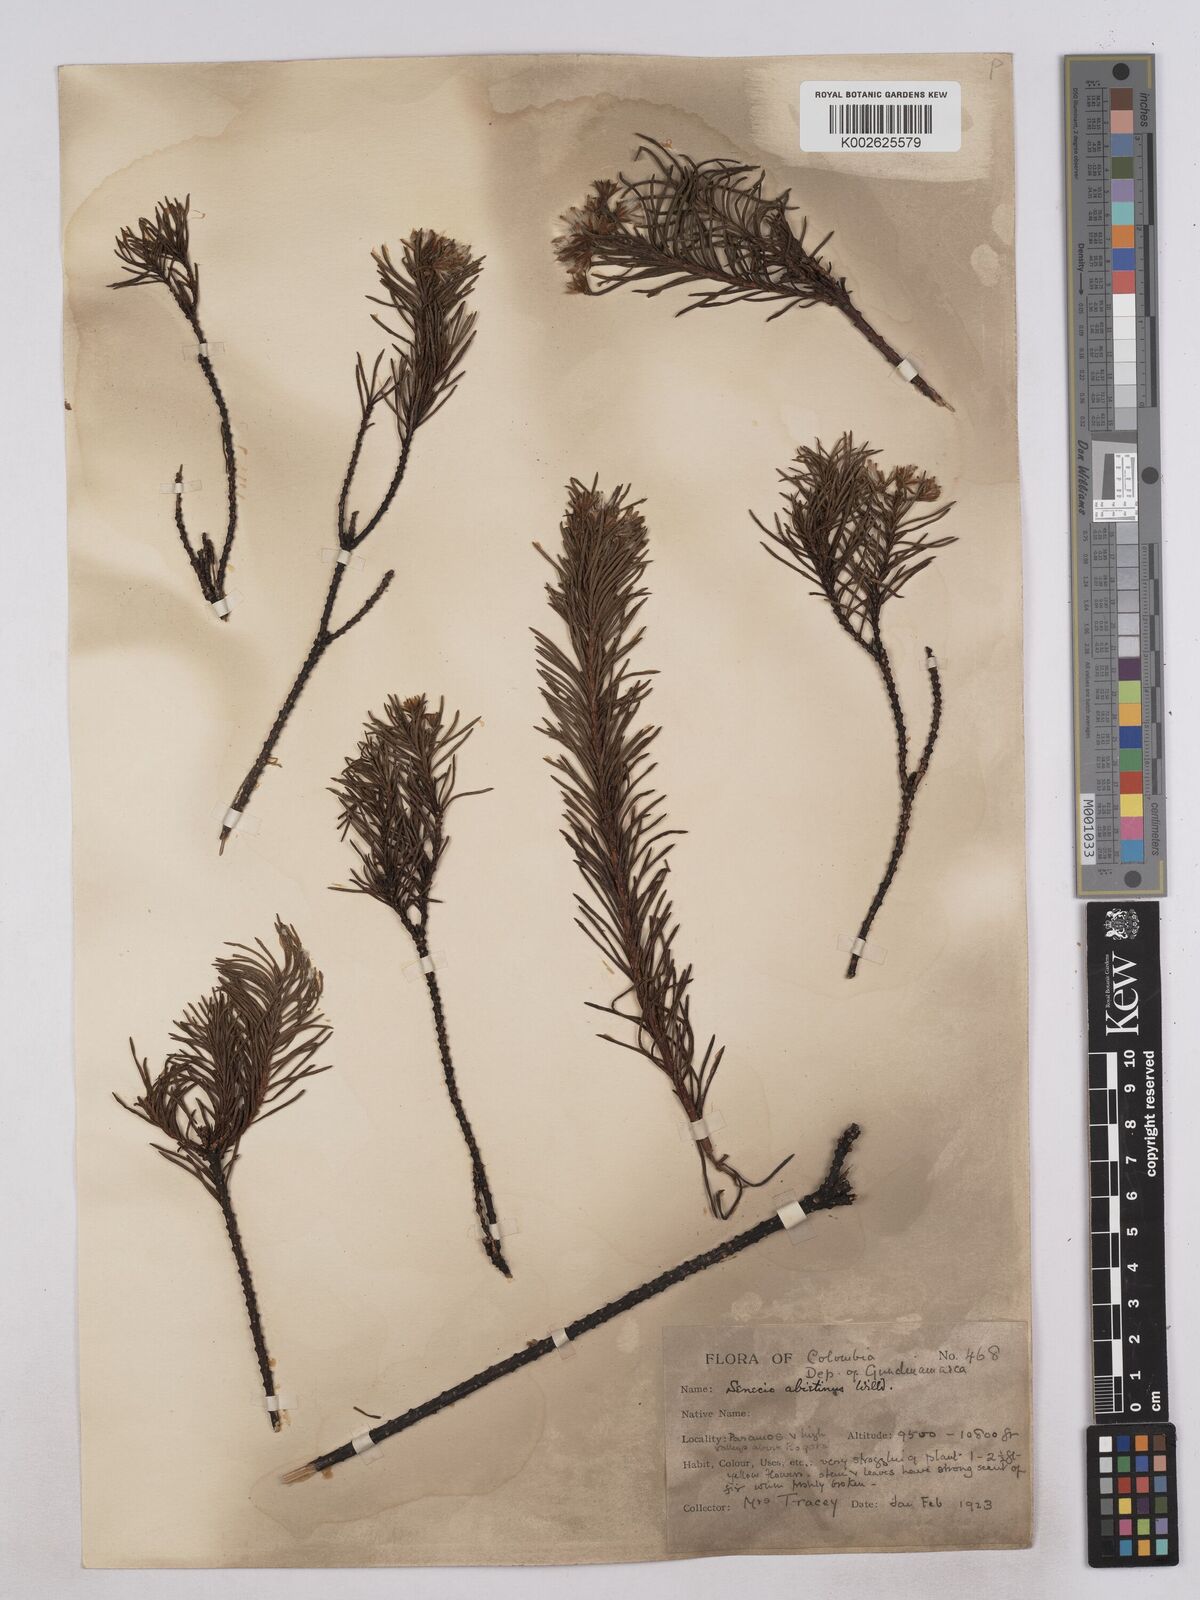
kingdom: Plantae
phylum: Tracheophyta
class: Magnoliopsida
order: Asterales
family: Asteraceae
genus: Monticalia
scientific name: Monticalia abietina
